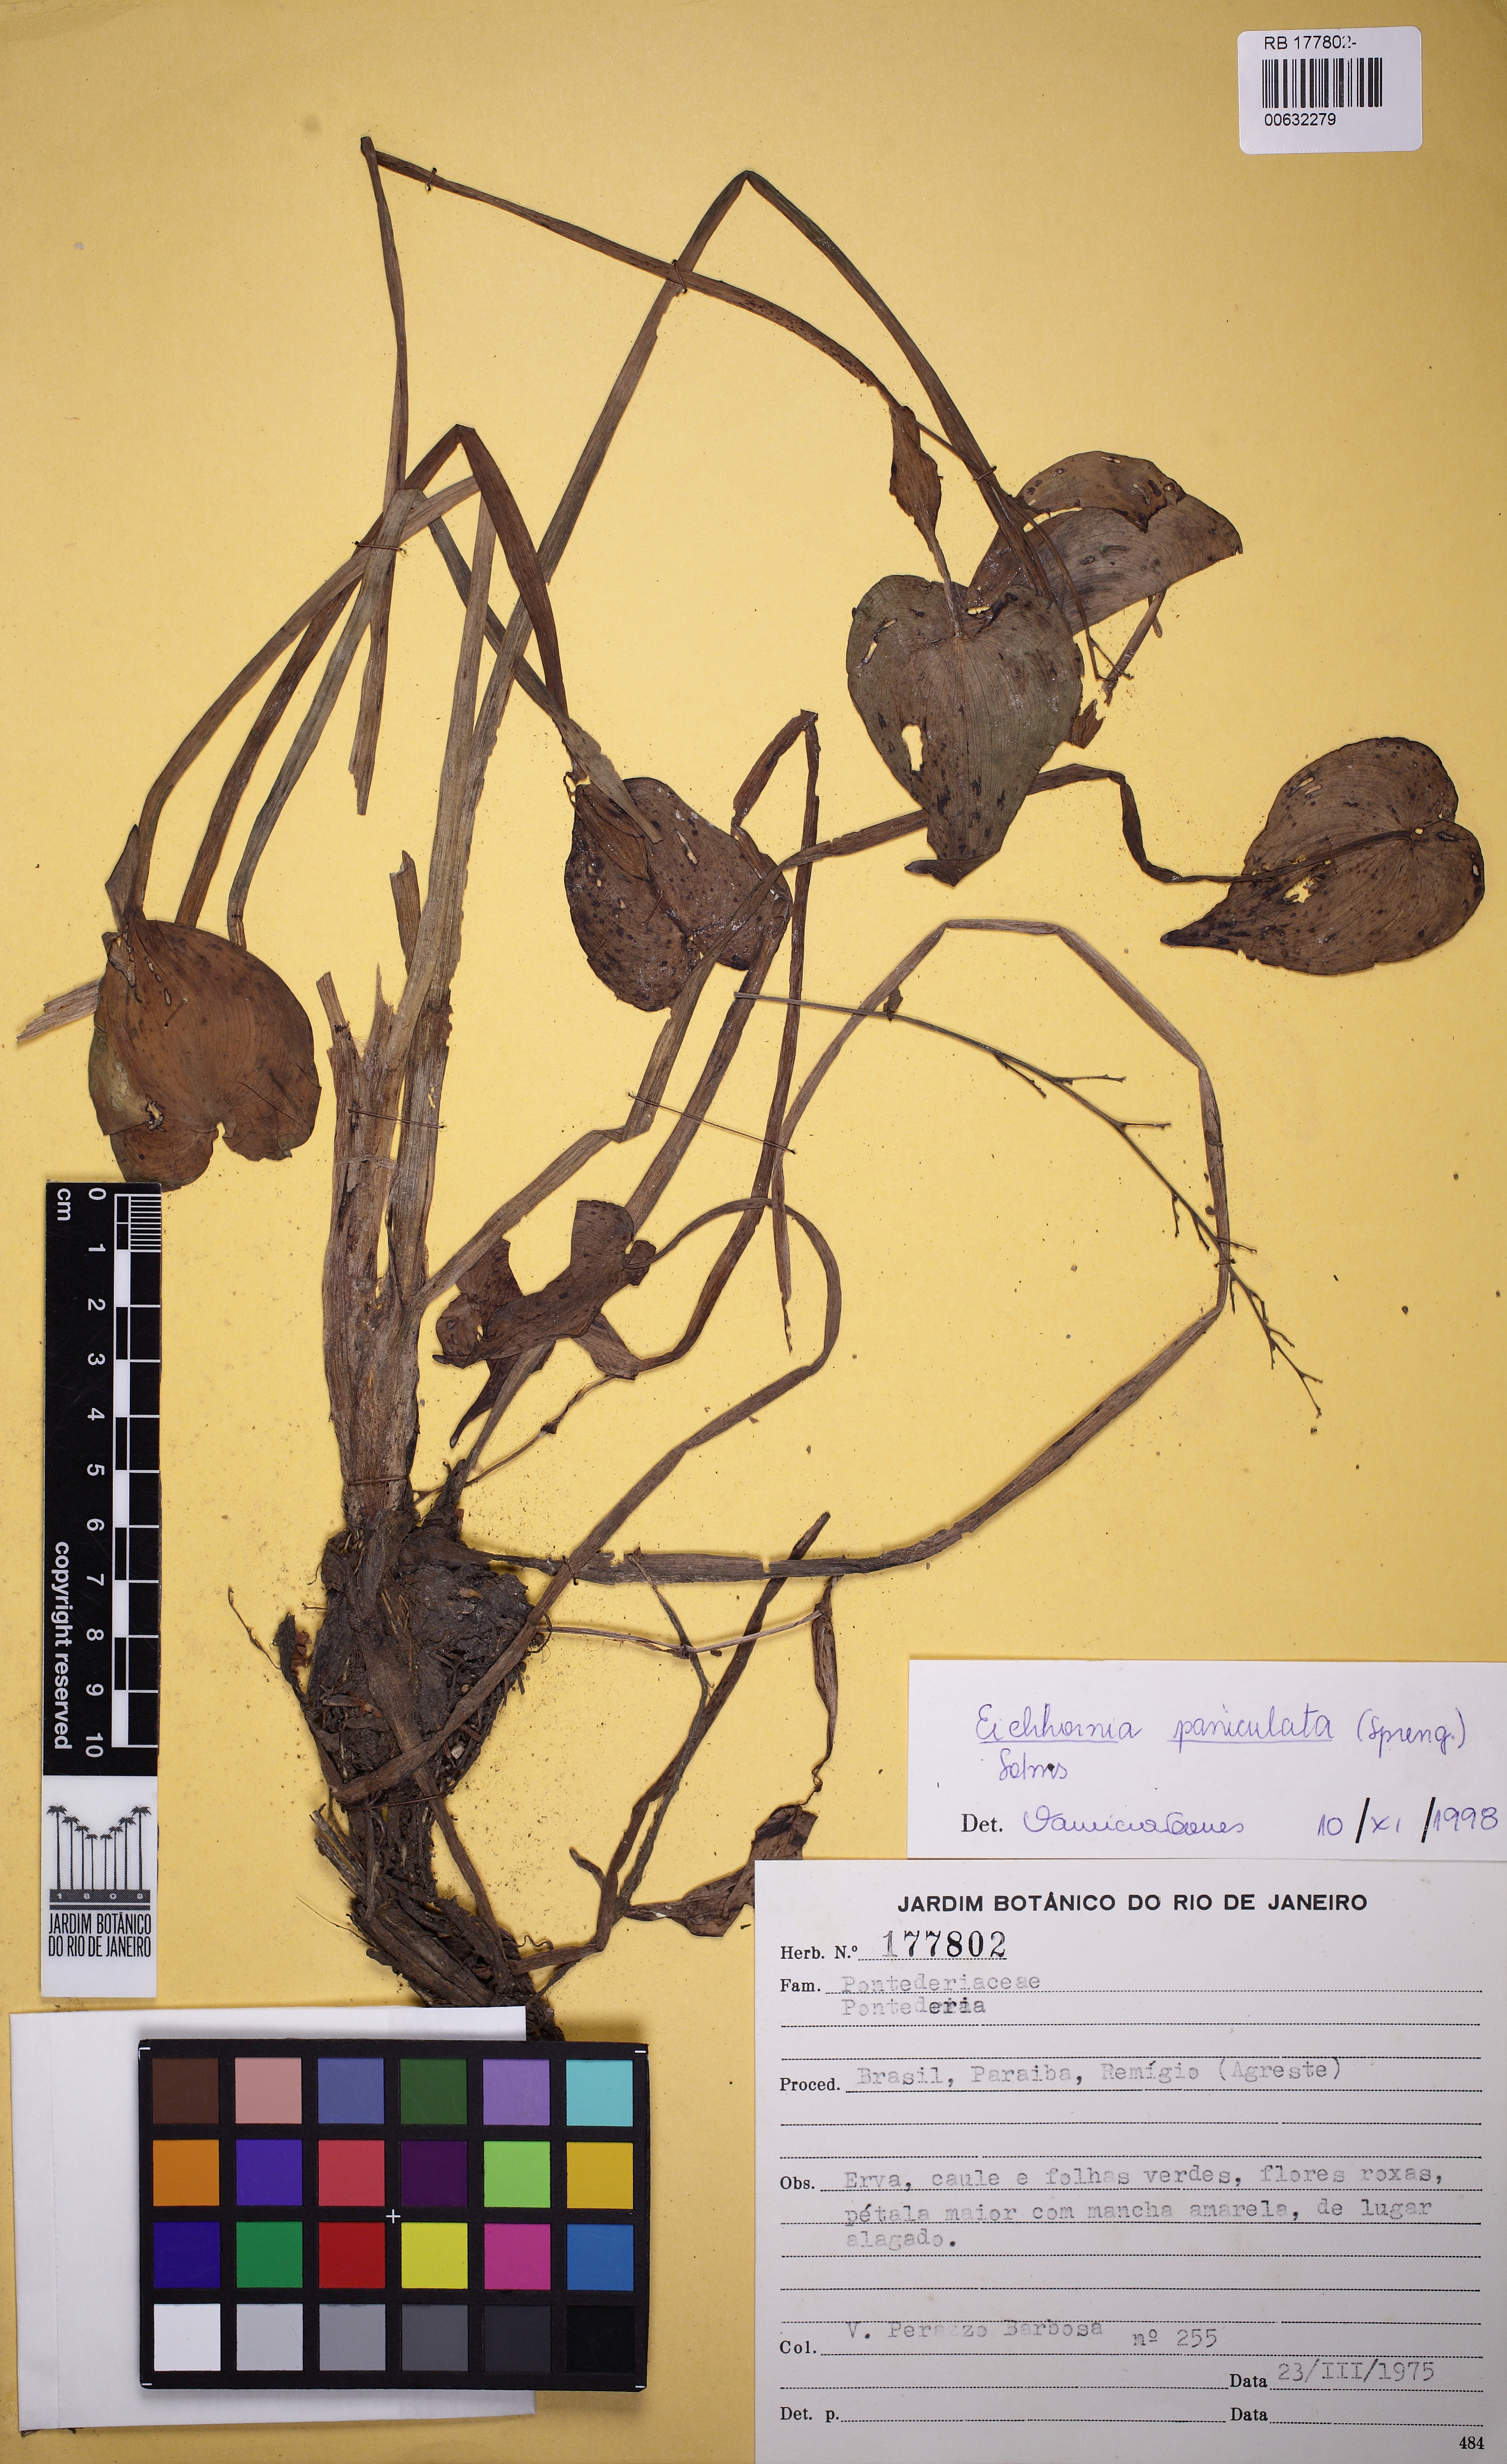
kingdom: Plantae
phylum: Tracheophyta
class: Liliopsida
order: Commelinales
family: Pontederiaceae
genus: Pontederia
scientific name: Pontederia paniculata
